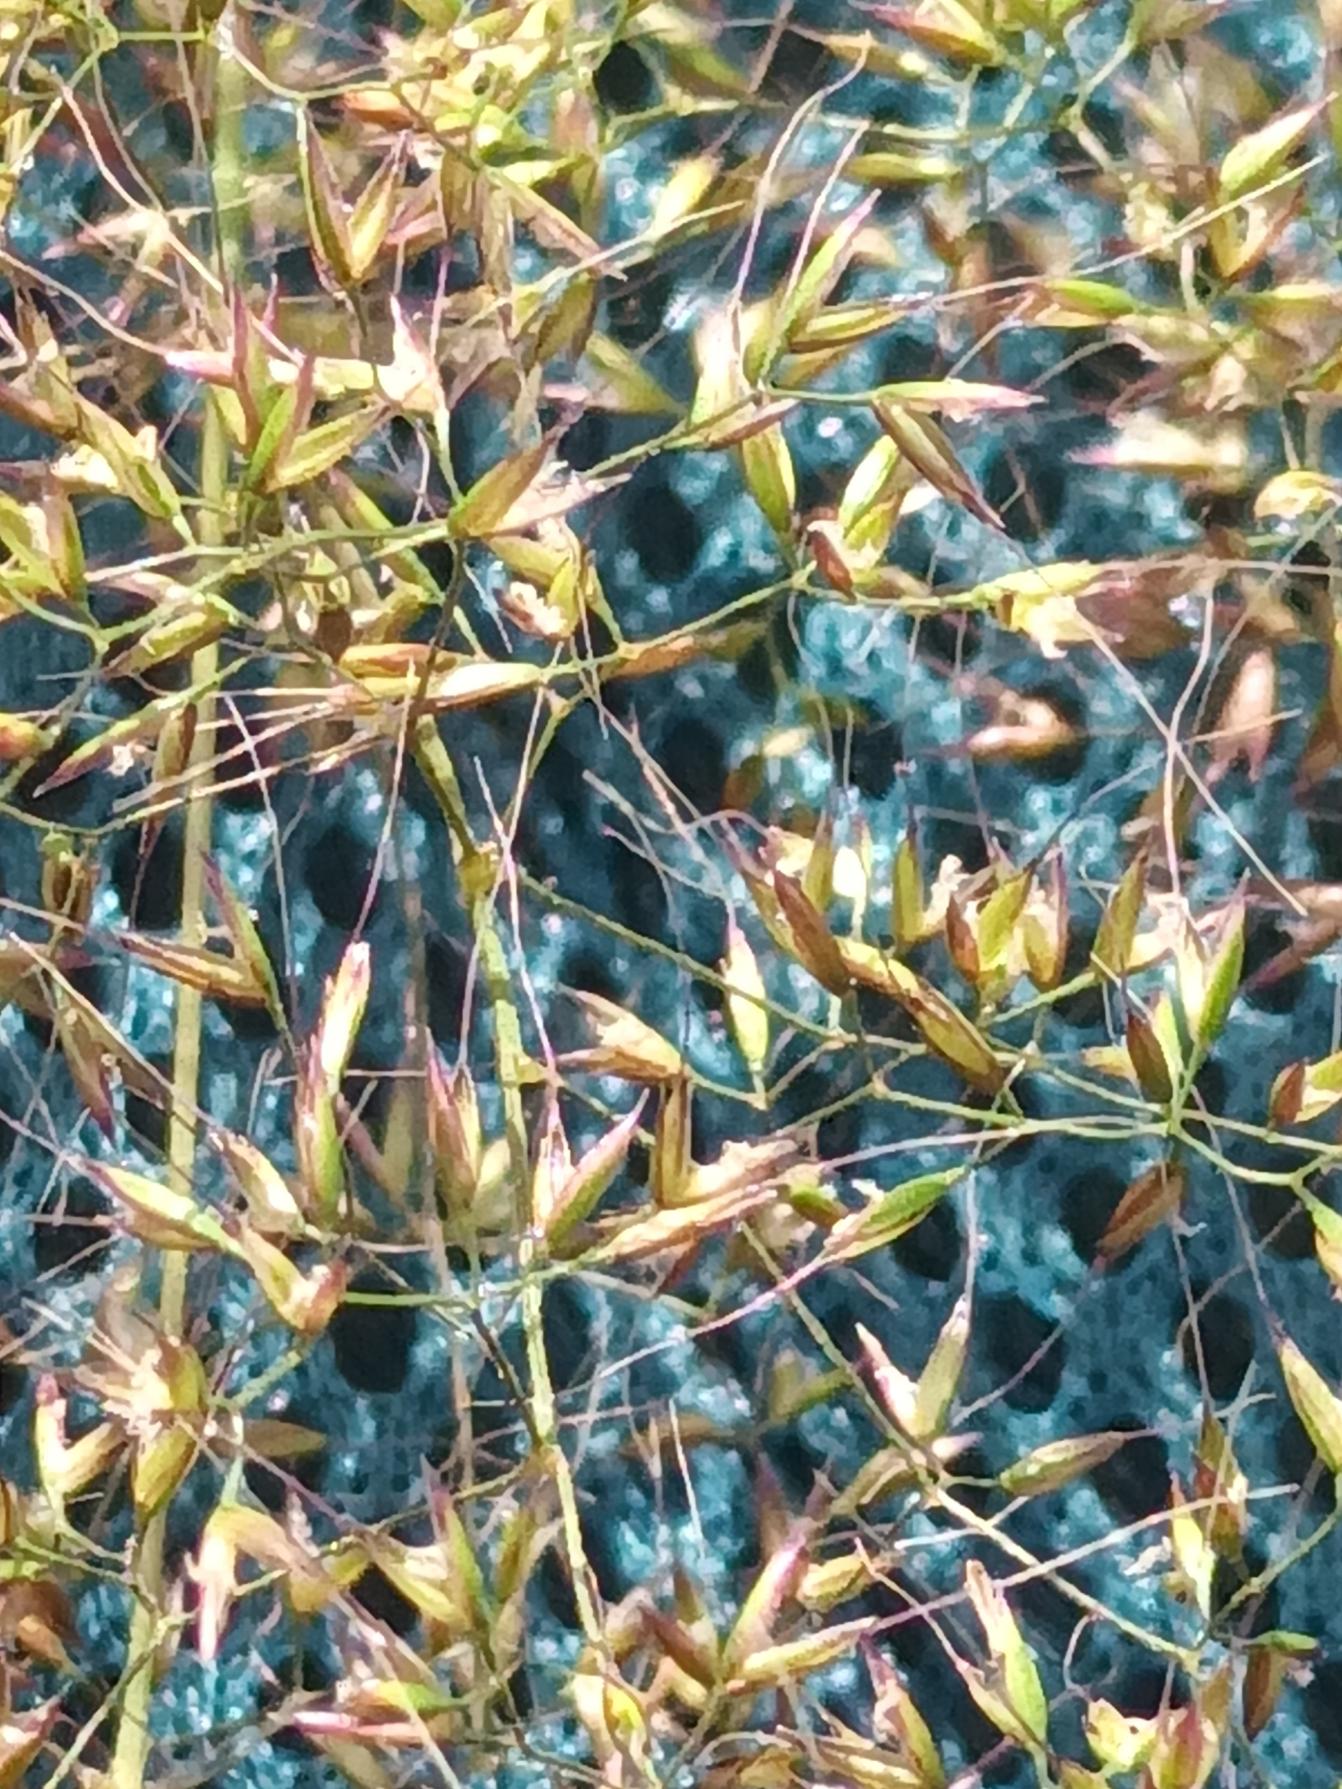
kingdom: Plantae
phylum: Tracheophyta
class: Liliopsida
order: Poales
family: Poaceae
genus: Apera
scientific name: Apera spica-venti
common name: Vindaks
